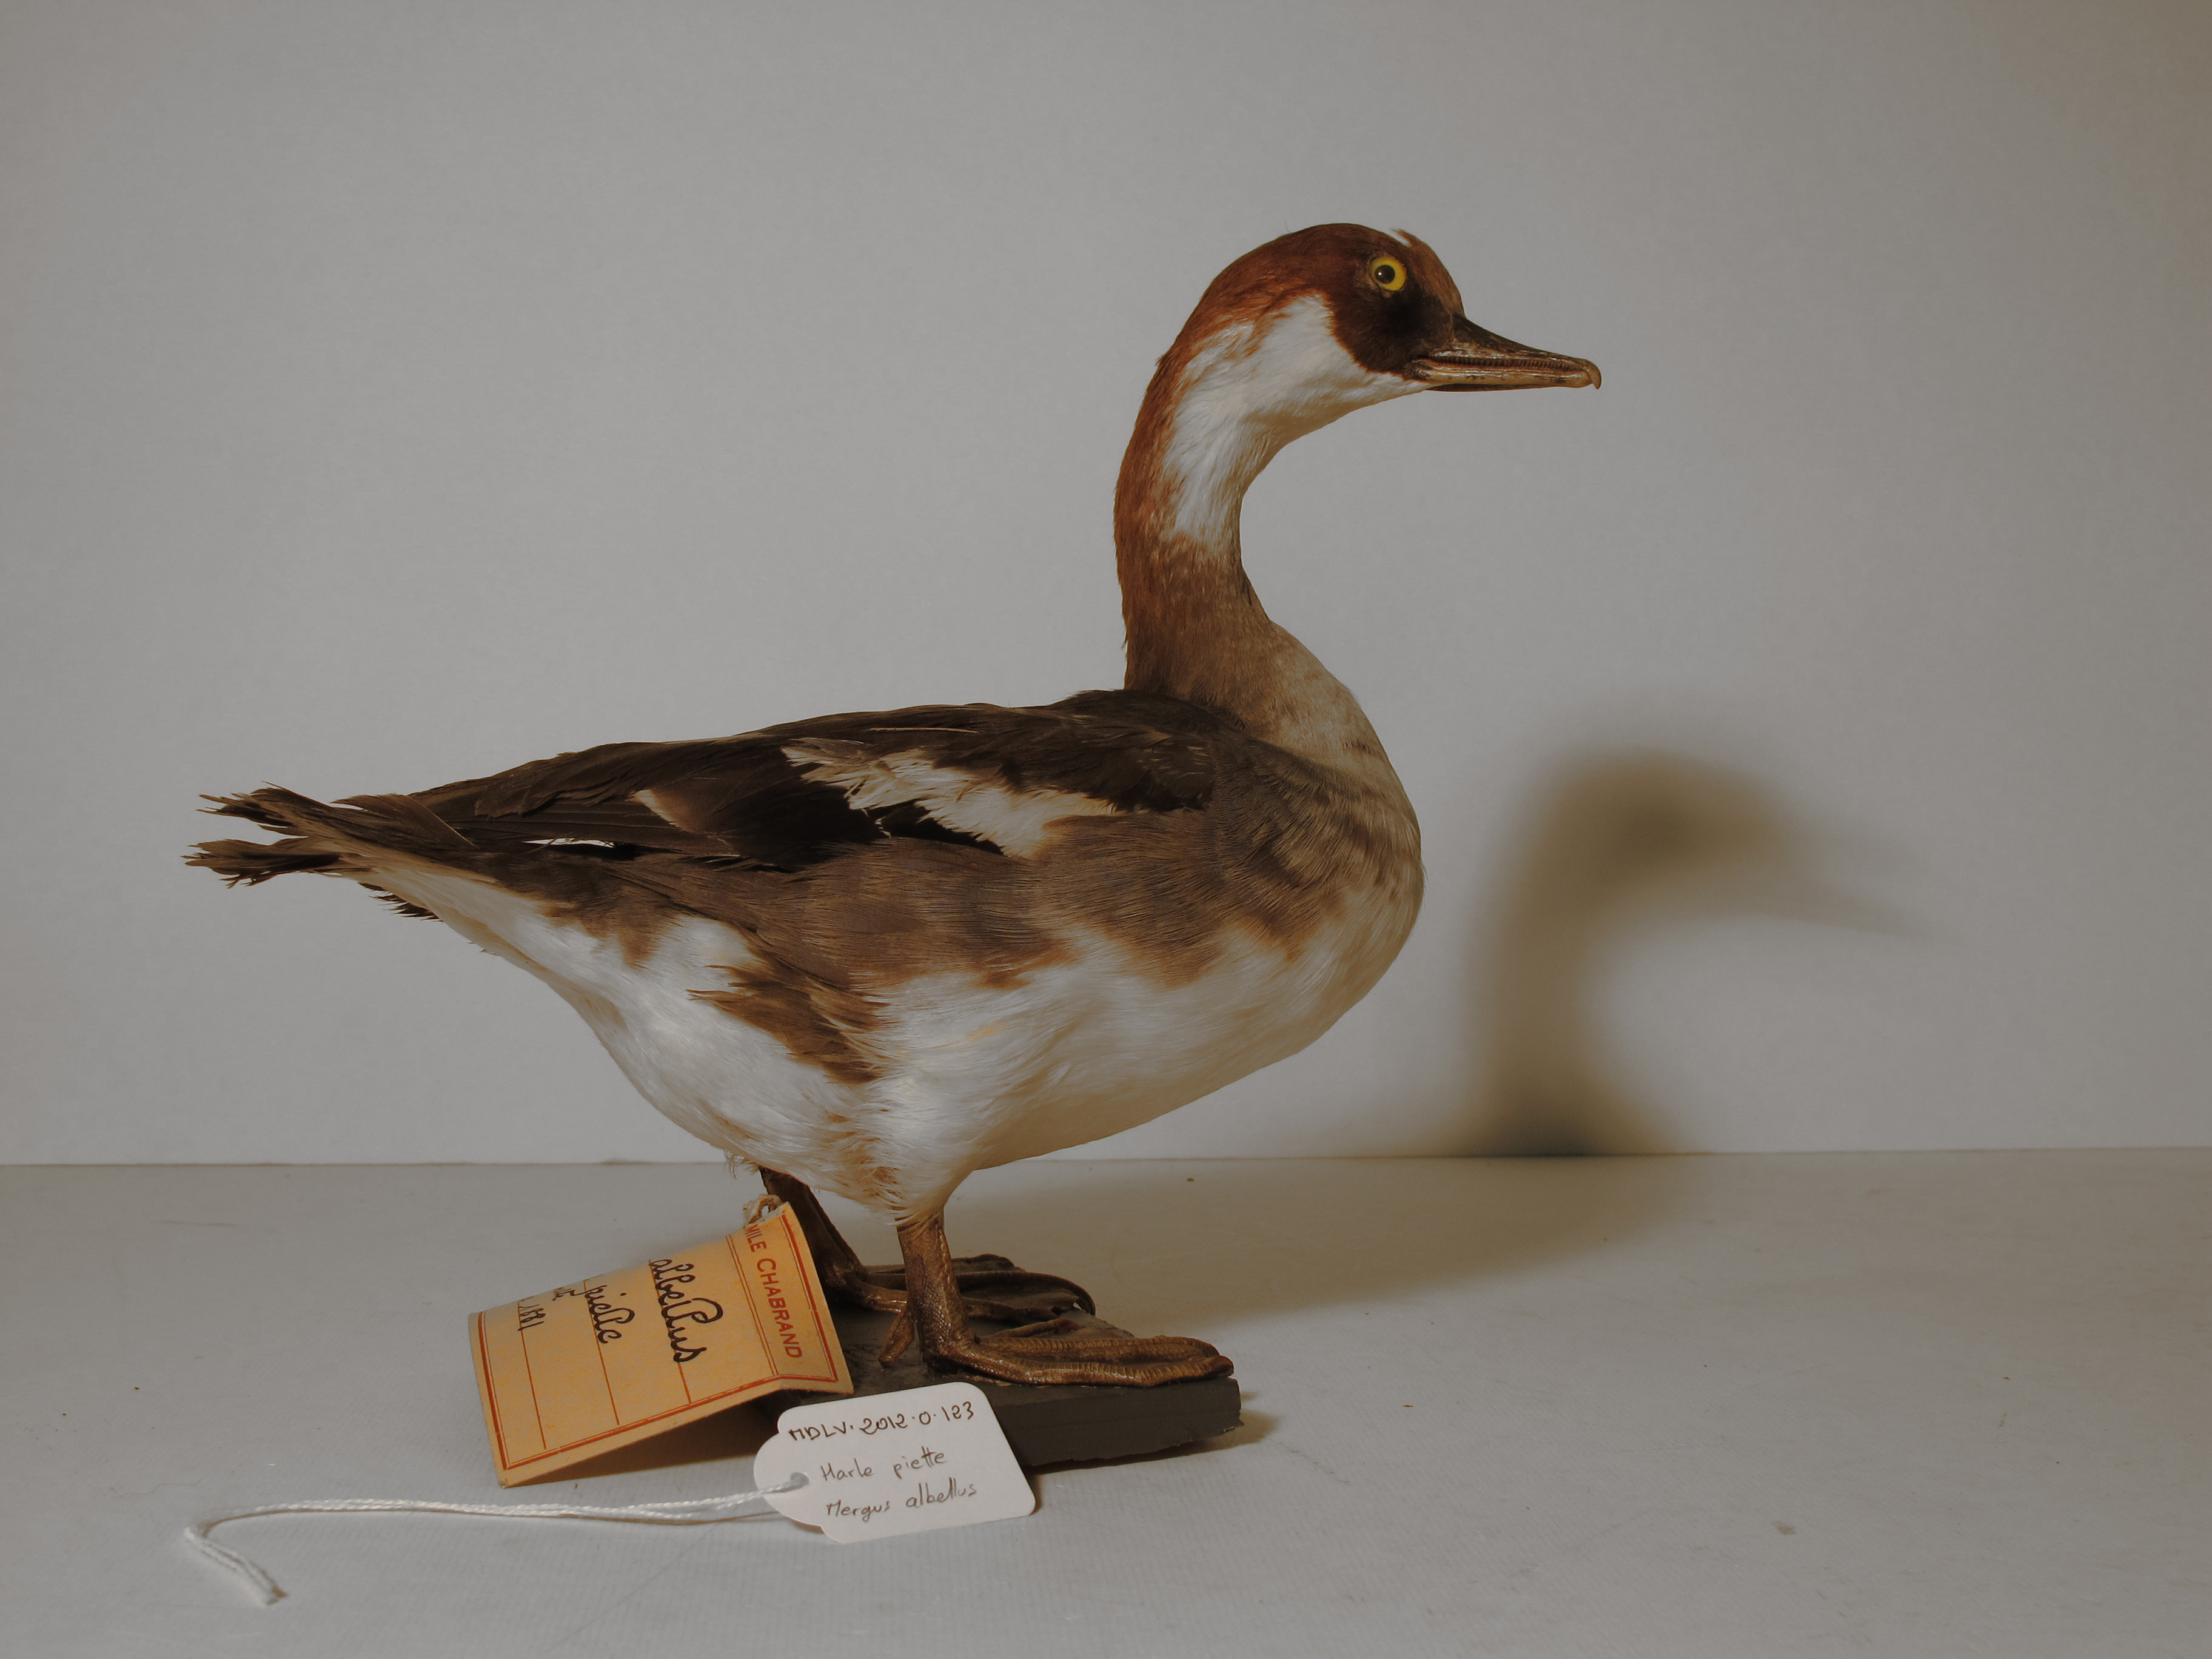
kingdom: Animalia
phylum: Chordata
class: Aves
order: Anseriformes
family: Anatidae
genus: Mergellus
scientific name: Mergellus albellus
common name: Smew
